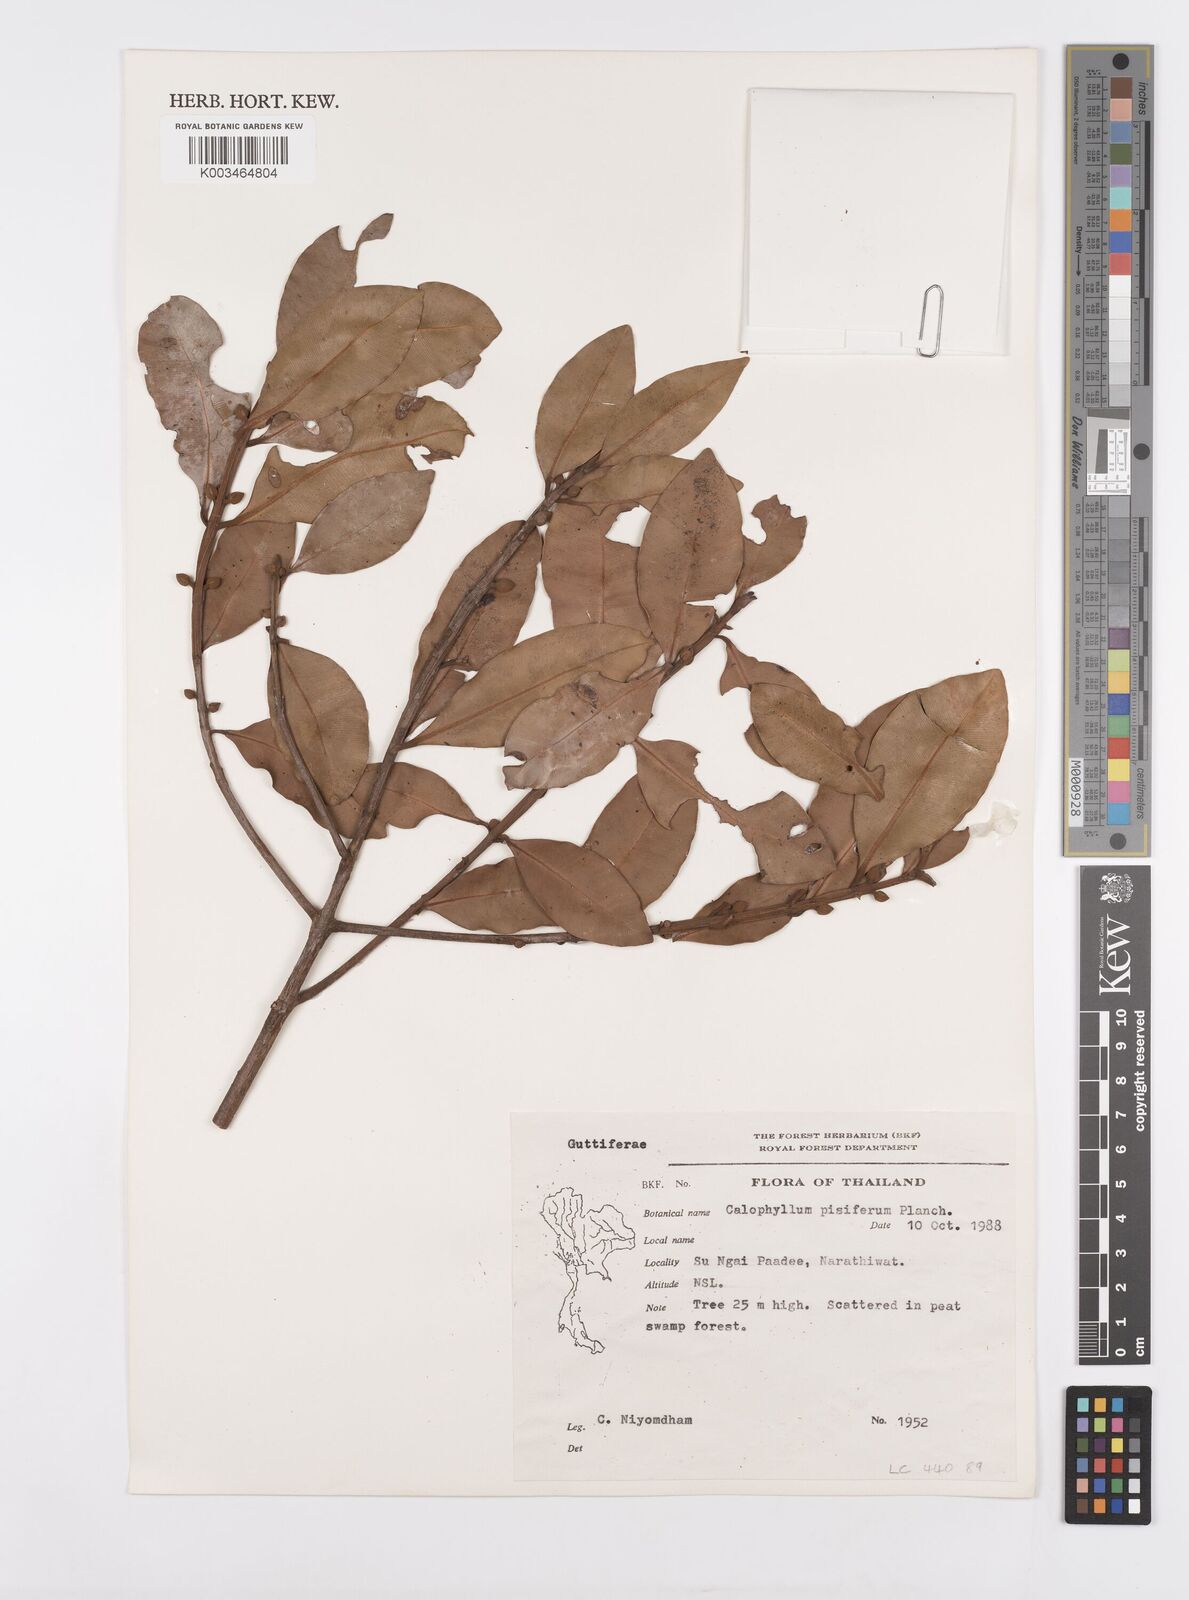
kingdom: Plantae
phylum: Tracheophyta
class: Magnoliopsida
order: Malpighiales
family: Calophyllaceae
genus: Calophyllum
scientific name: Calophyllum pisiferum
